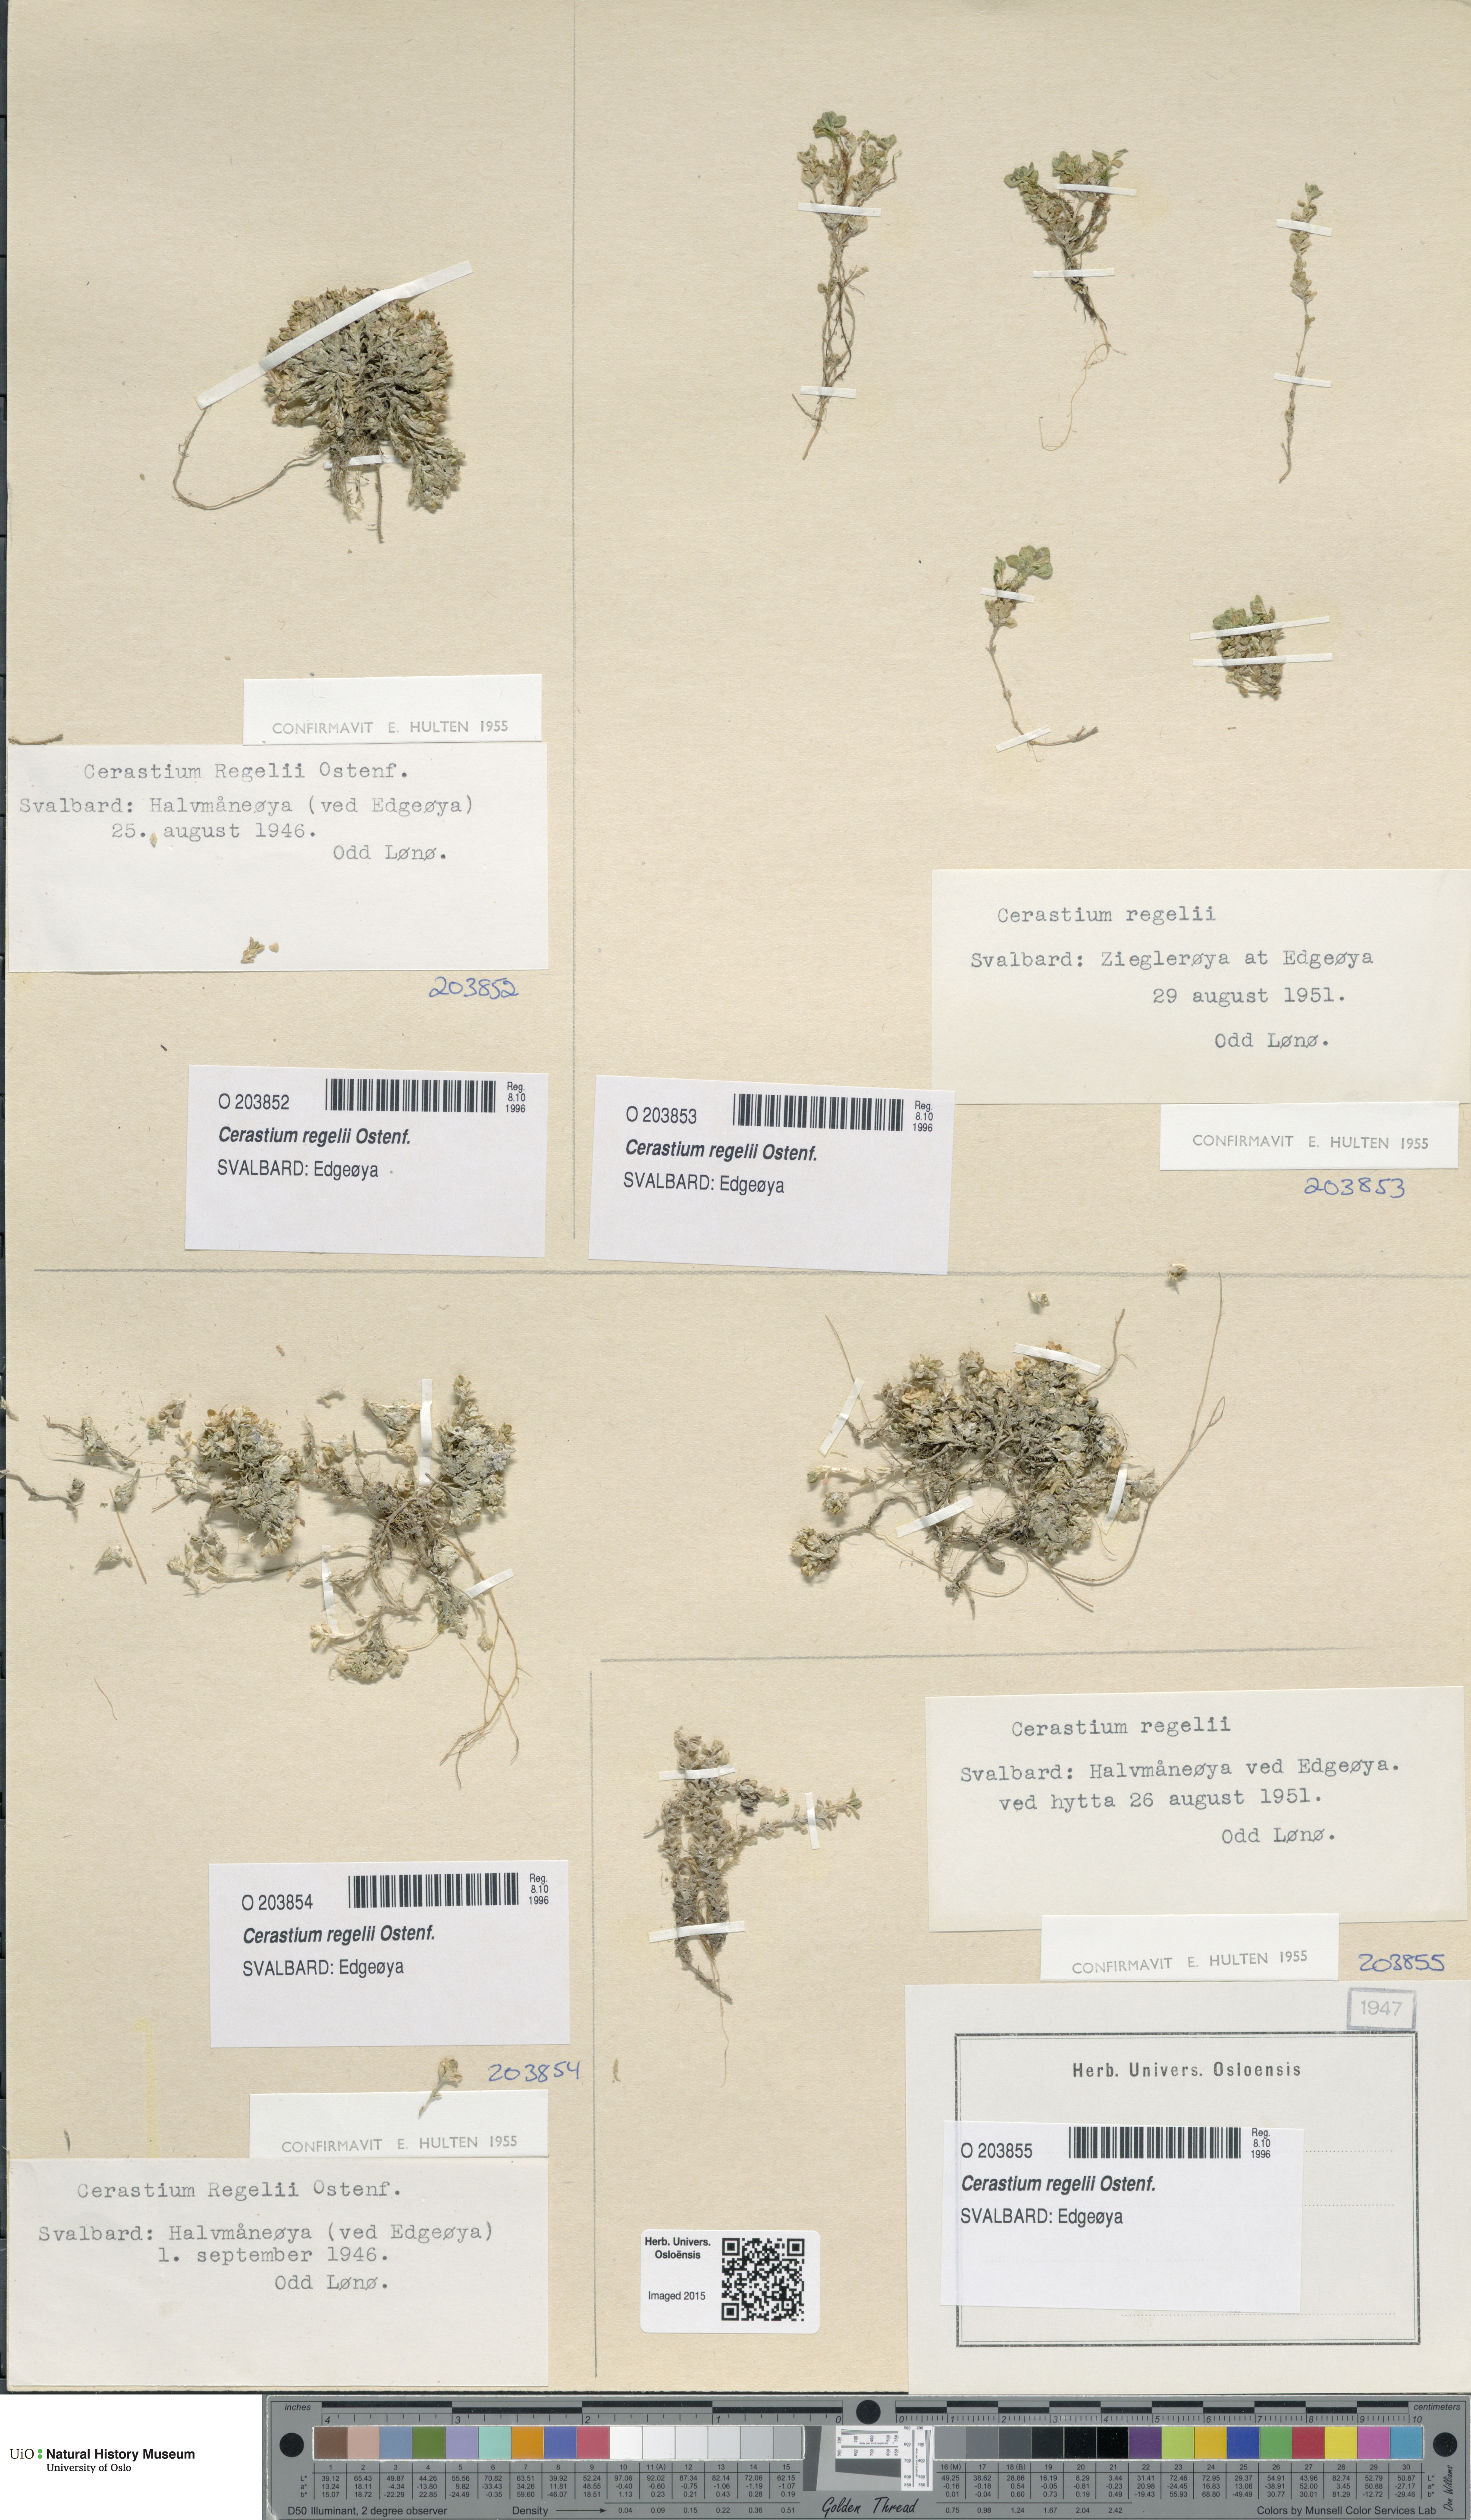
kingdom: Plantae
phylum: Tracheophyta
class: Magnoliopsida
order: Caryophyllales
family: Caryophyllaceae
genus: Cerastium
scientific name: Cerastium regelii
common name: Regel's chickweed
